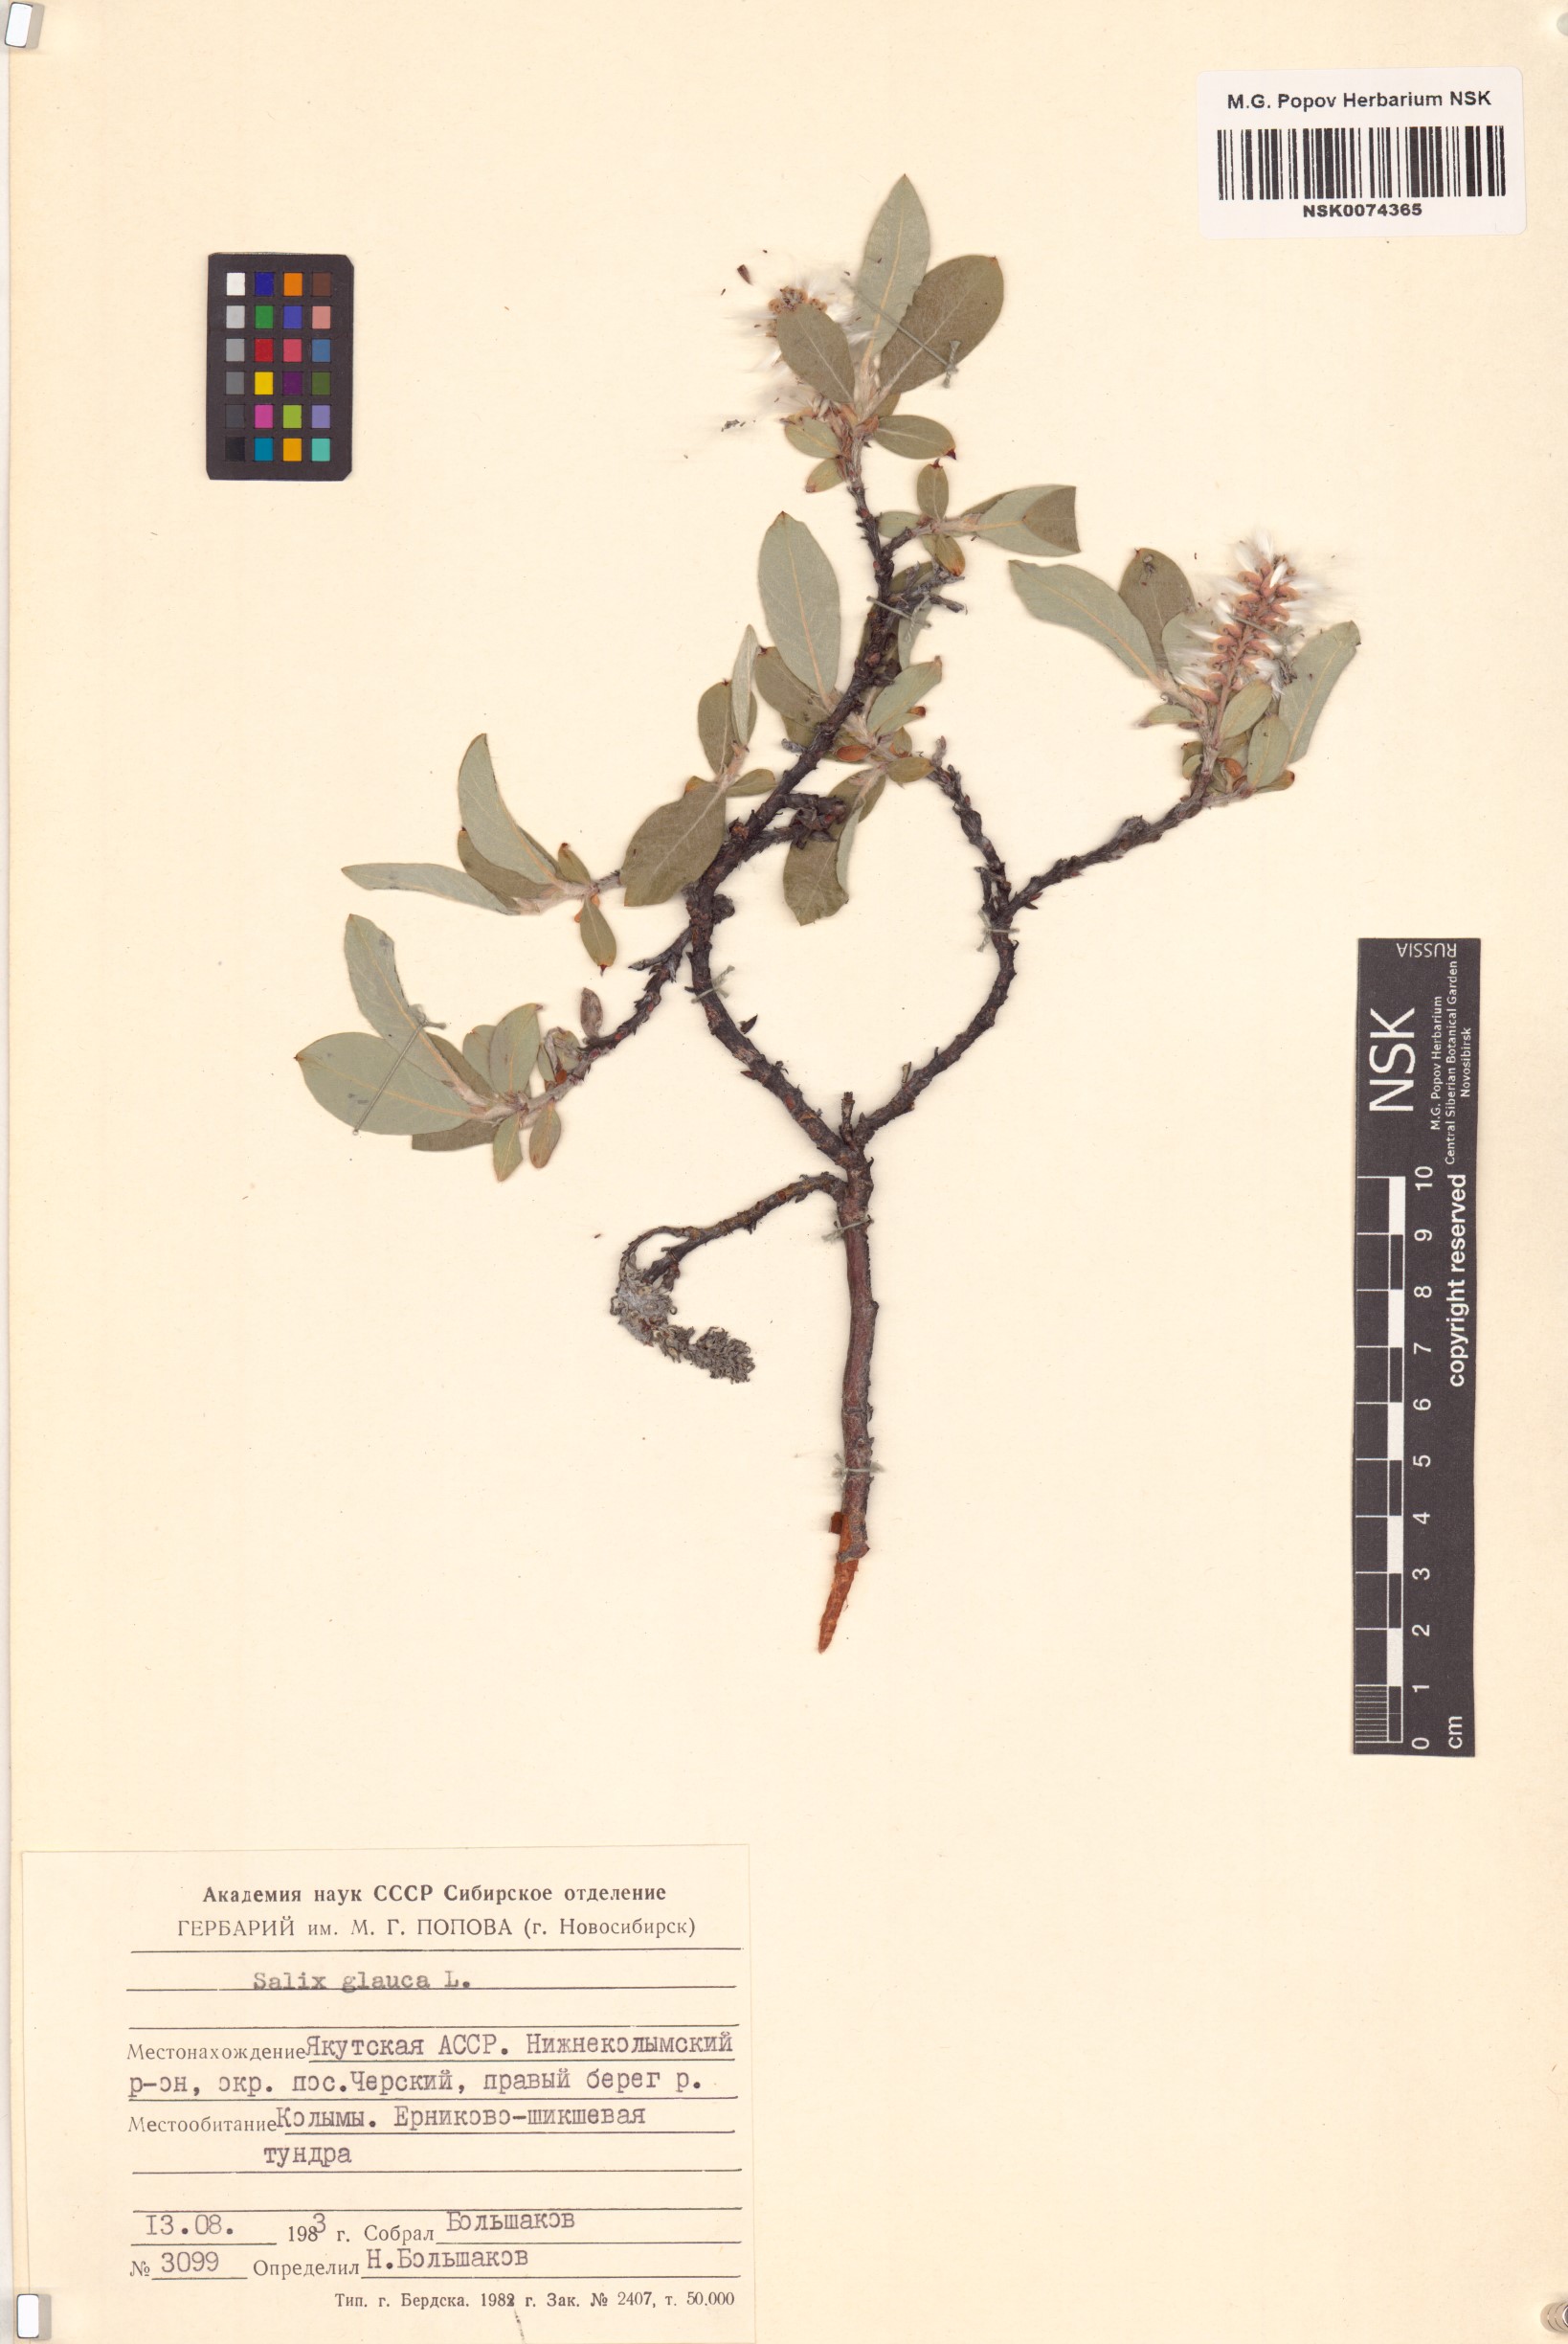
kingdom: Plantae
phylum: Tracheophyta
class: Magnoliopsida
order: Malpighiales
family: Salicaceae
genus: Salix
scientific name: Salix glauca
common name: Glaucous willow
